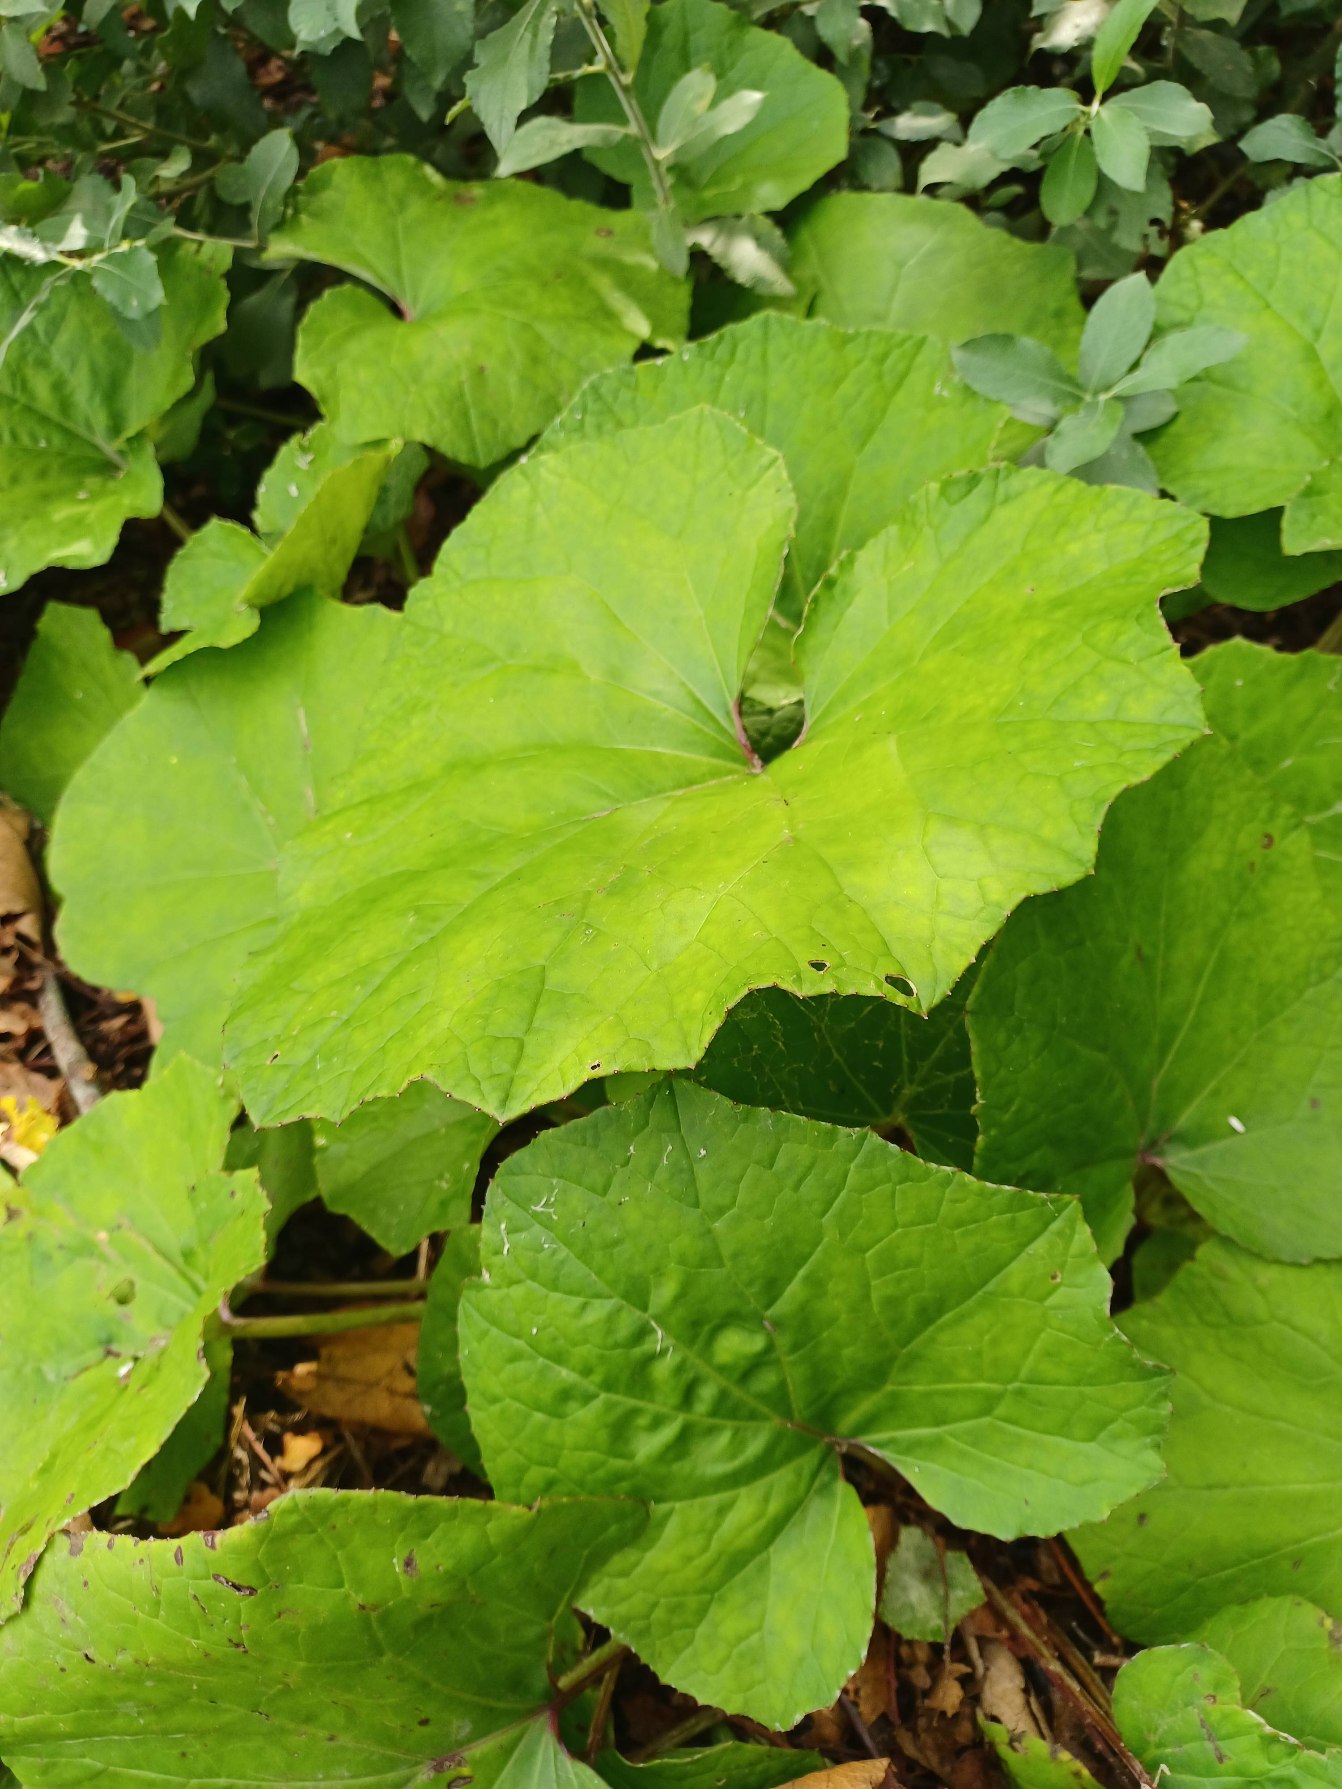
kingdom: Plantae
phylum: Tracheophyta
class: Magnoliopsida
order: Asterales
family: Asteraceae
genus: Tussilago
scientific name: Tussilago farfara
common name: Følfod
